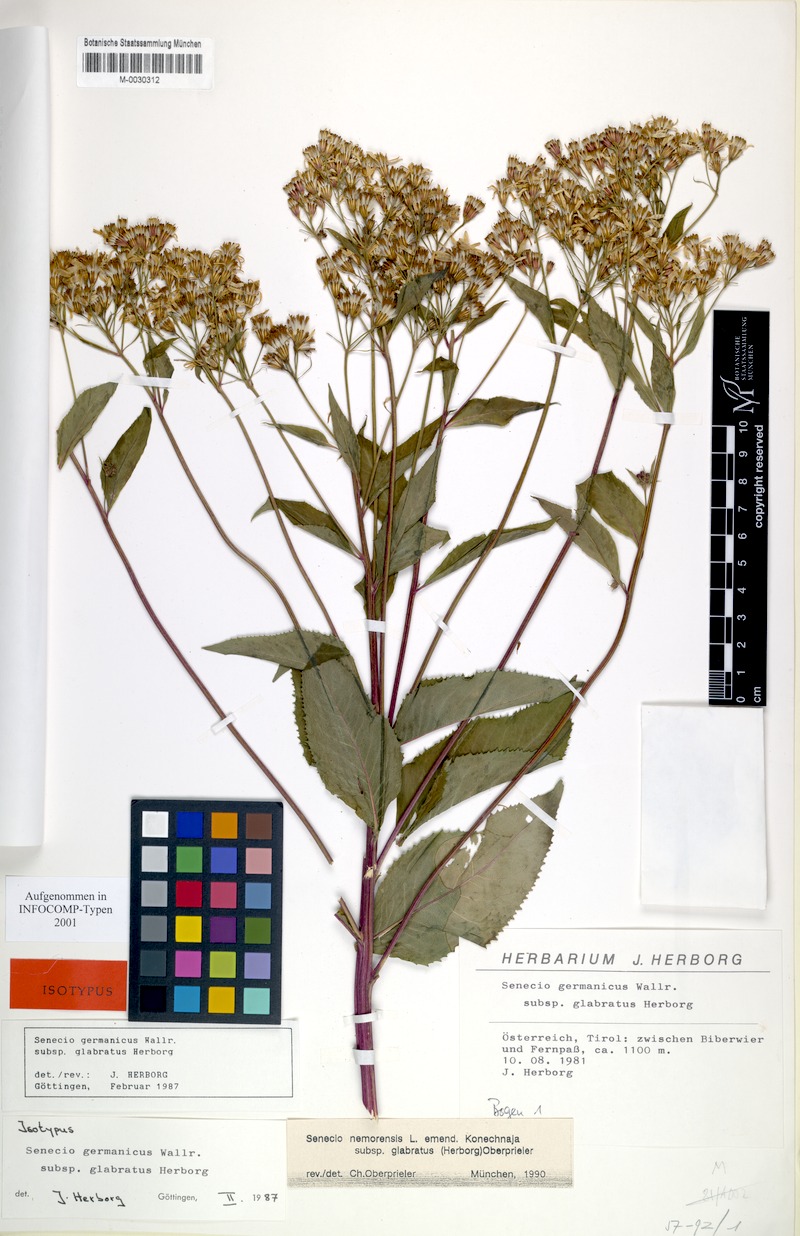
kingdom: Plantae
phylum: Tracheophyta
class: Magnoliopsida
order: Asterales
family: Asteraceae
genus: Senecio
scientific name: Senecio germanicus
